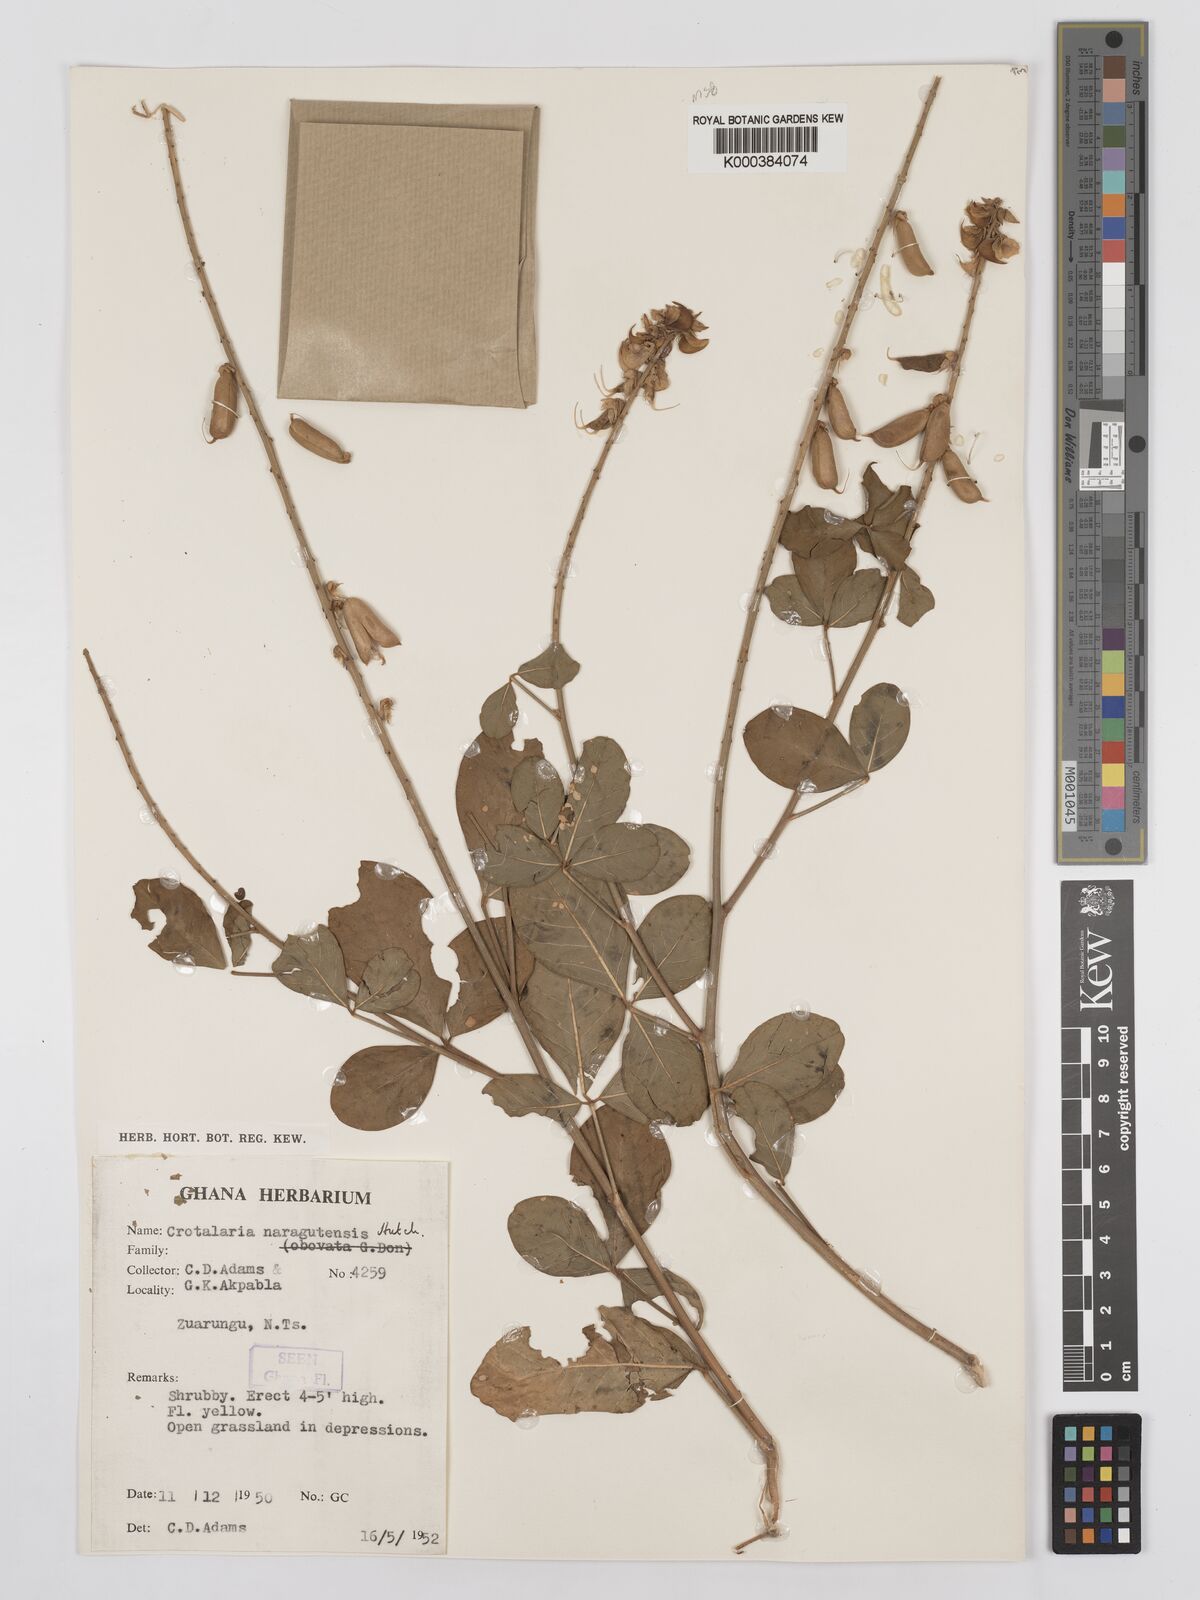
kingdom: Plantae
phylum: Tracheophyta
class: Magnoliopsida
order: Fabales
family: Fabaceae
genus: Crotalaria
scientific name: Crotalaria naragutensis
